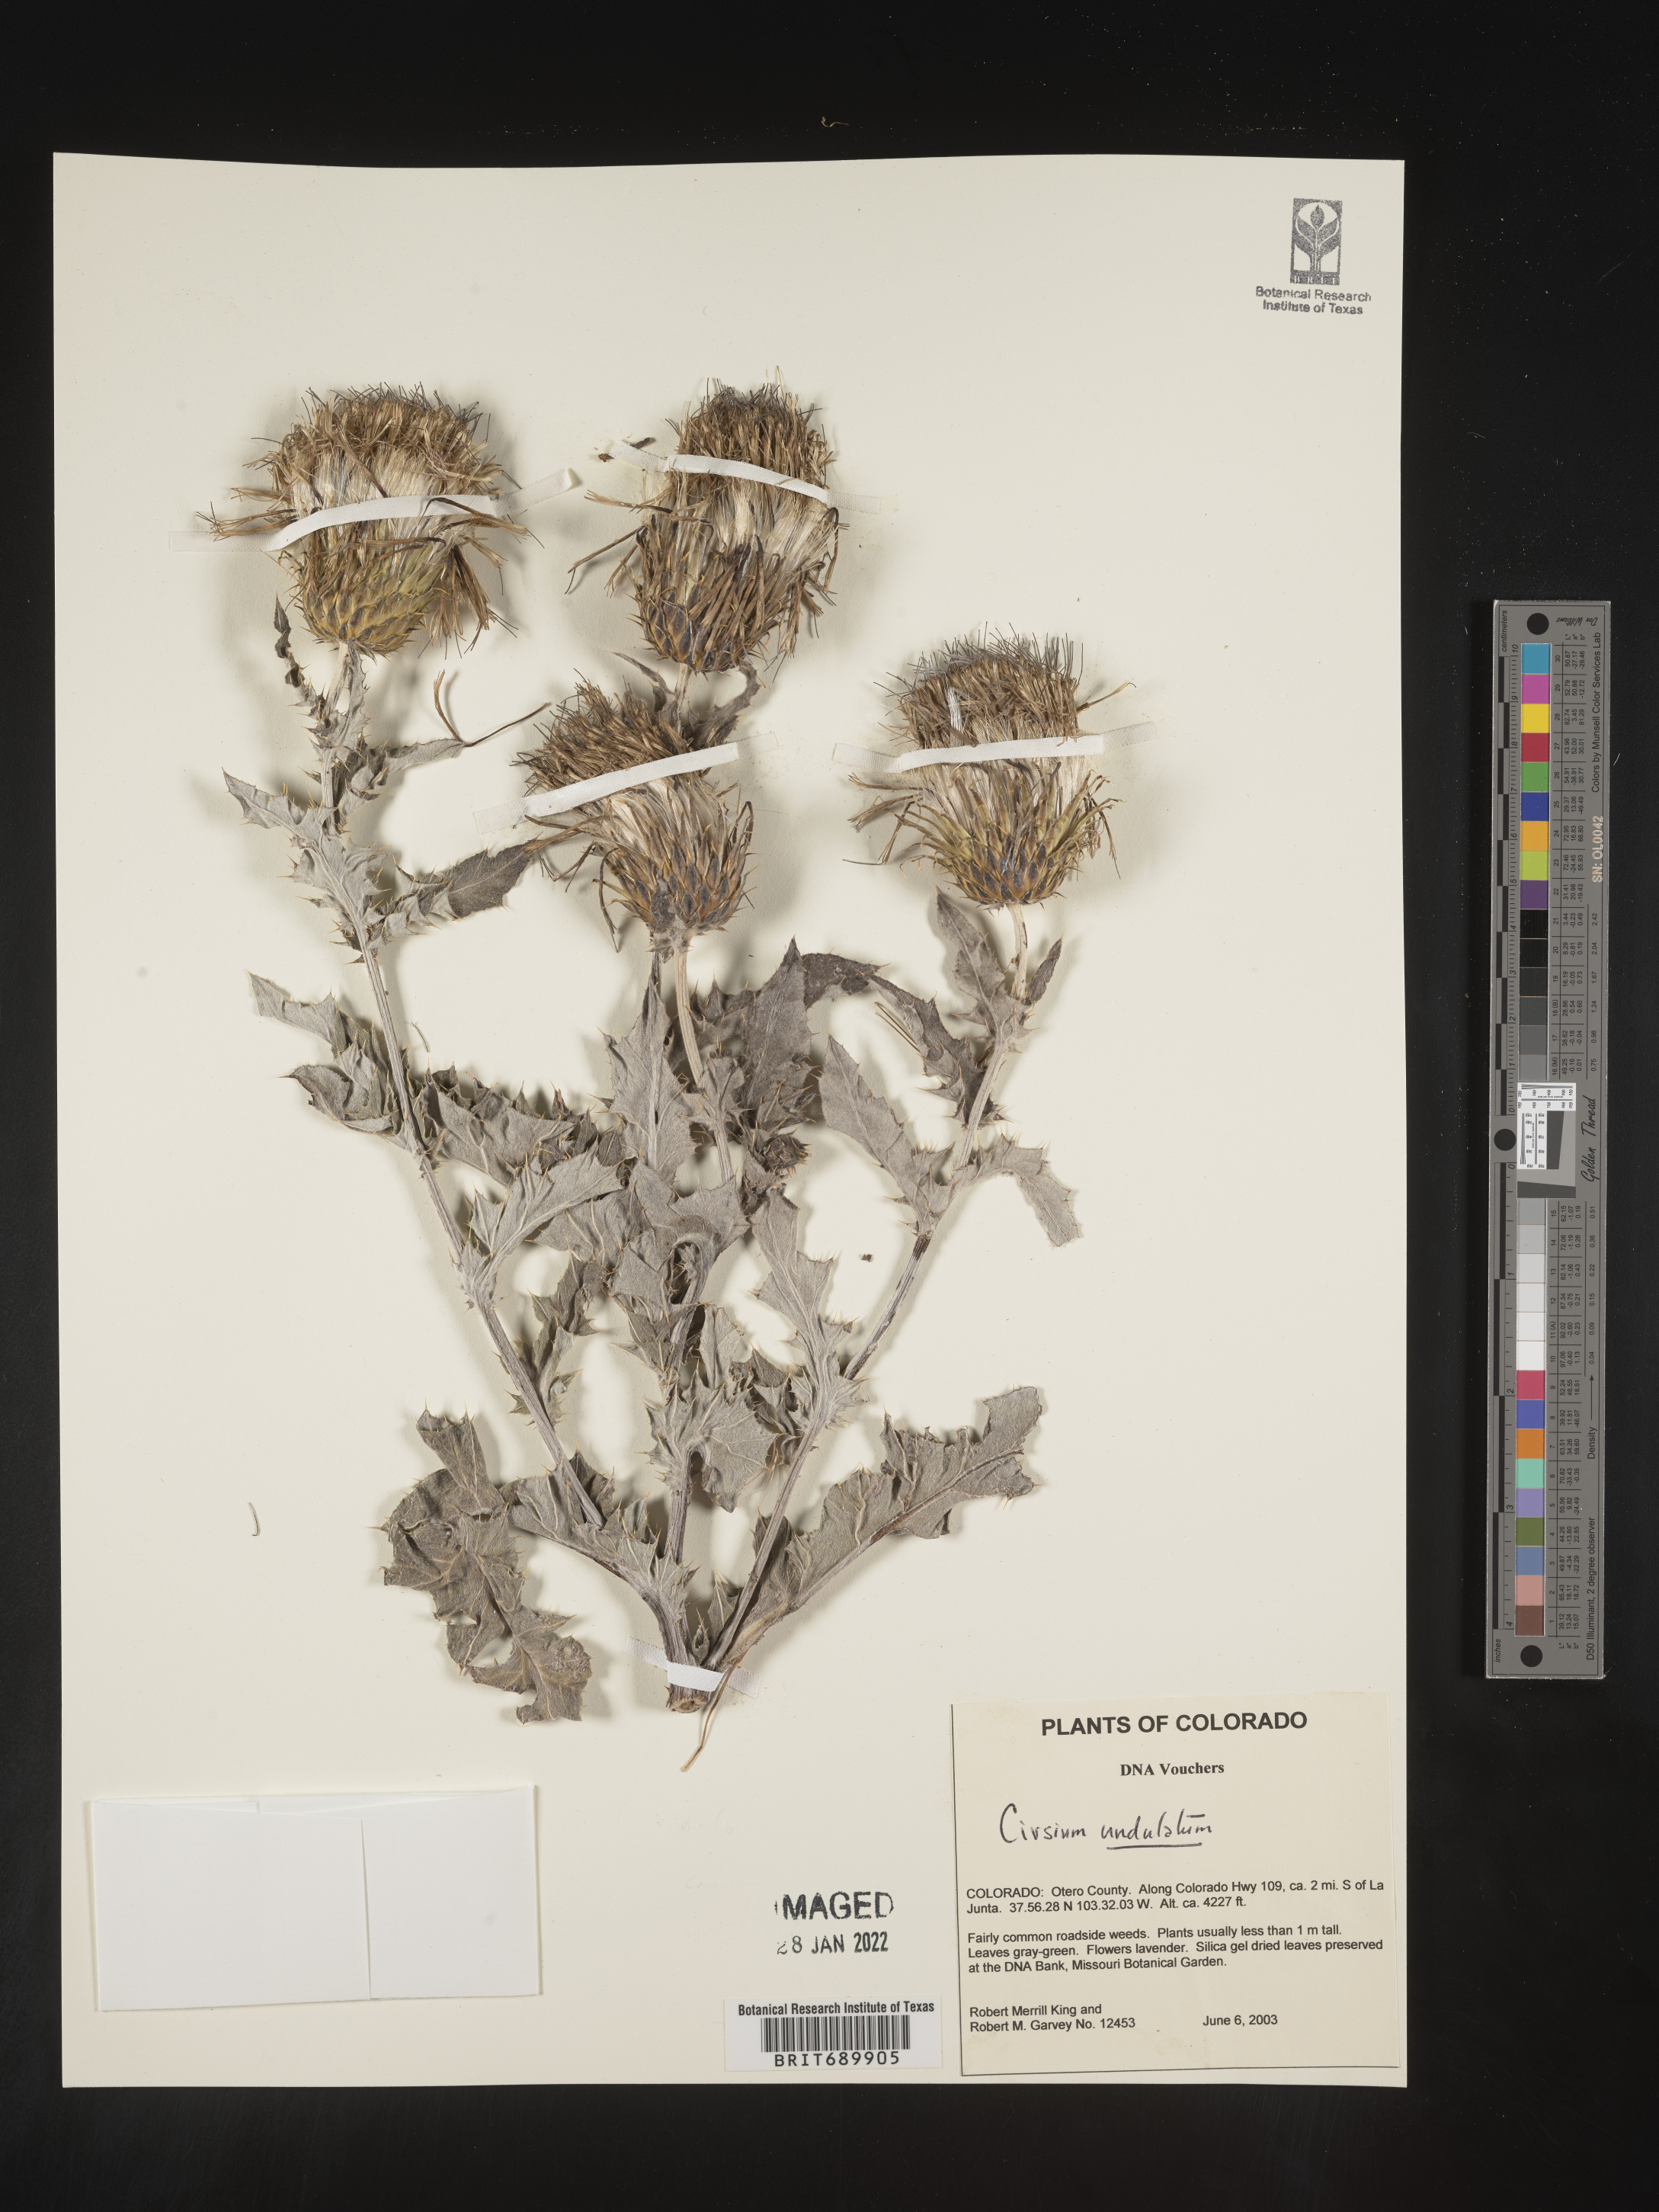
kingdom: Plantae
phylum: Tracheophyta
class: Magnoliopsida
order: Asterales
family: Asteraceae
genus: Cirsium
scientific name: Cirsium undulatum
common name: Pasture thistle
